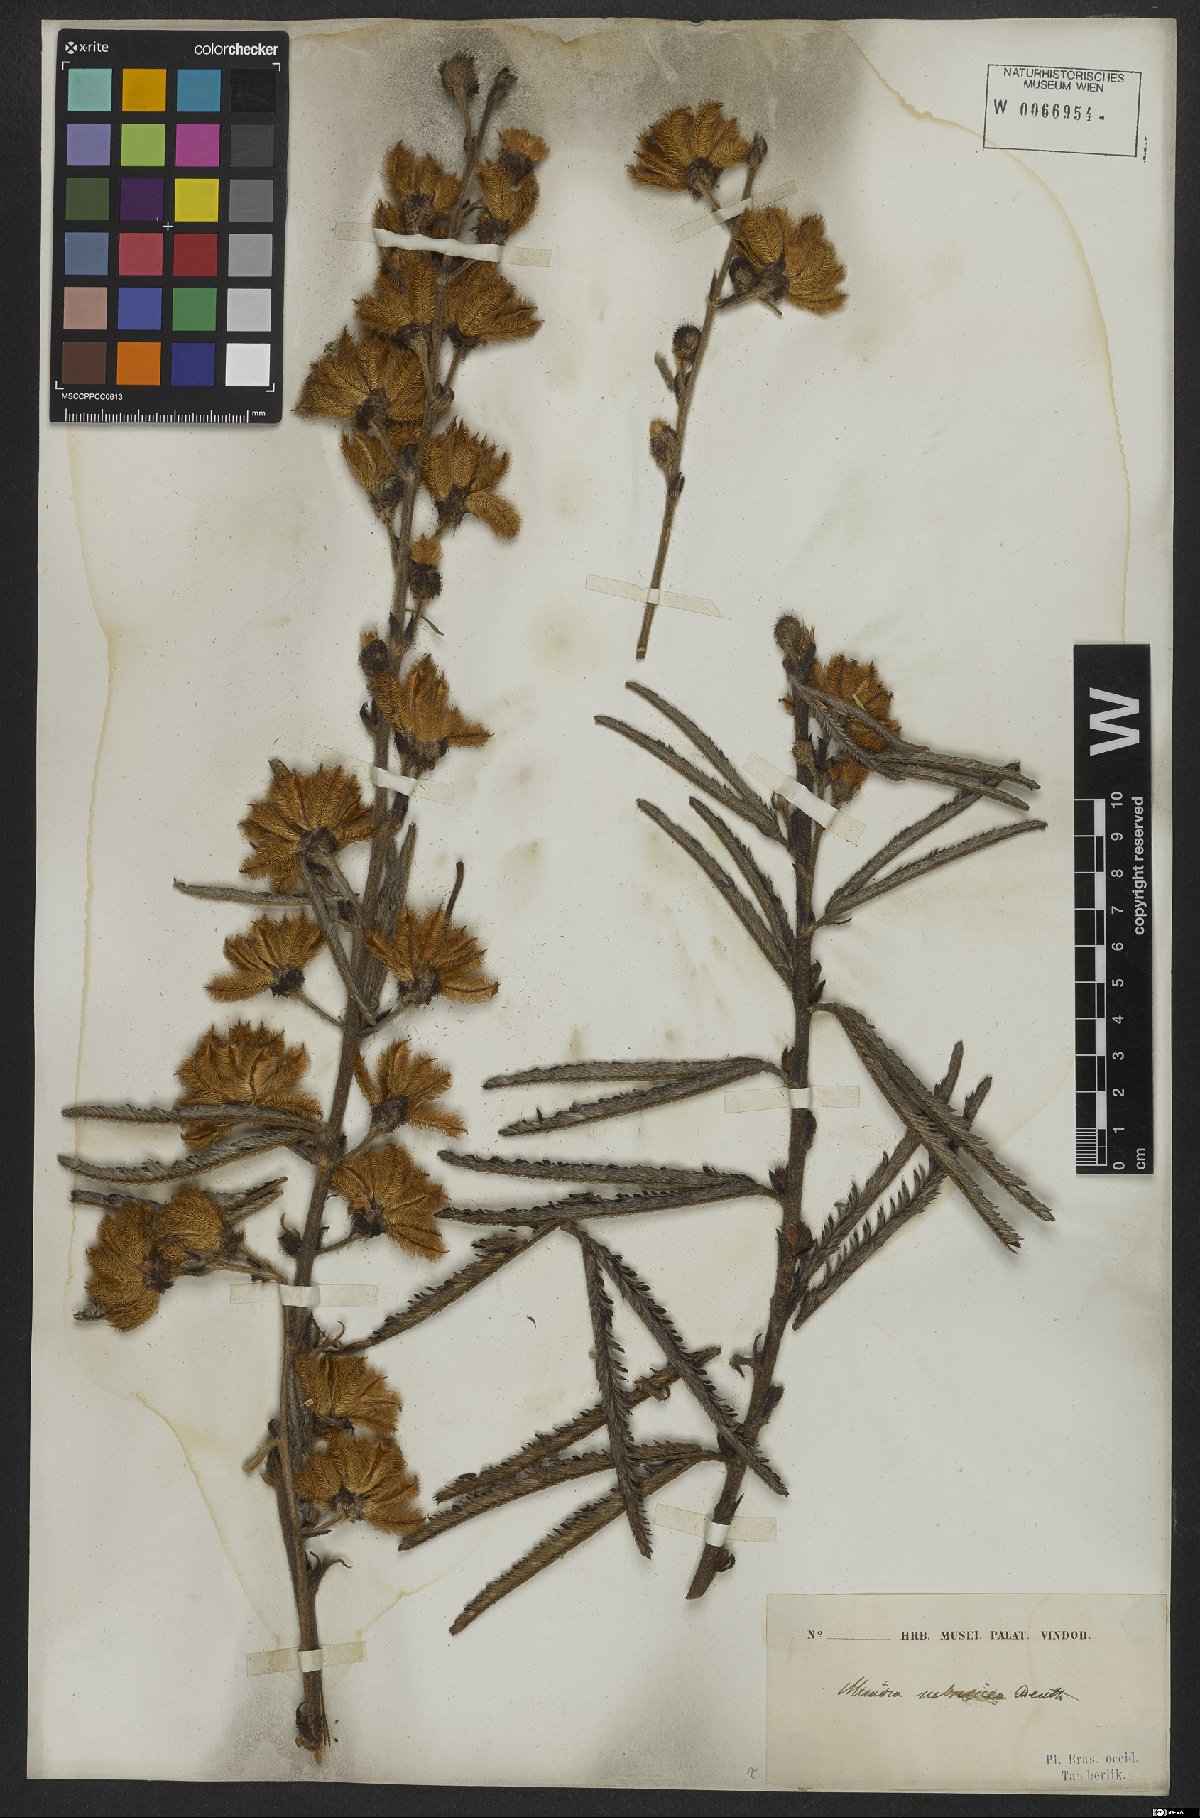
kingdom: Plantae
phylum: Tracheophyta
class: Magnoliopsida
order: Fabales
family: Fabaceae
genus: Mimosa
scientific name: Mimosa xanthocentra
